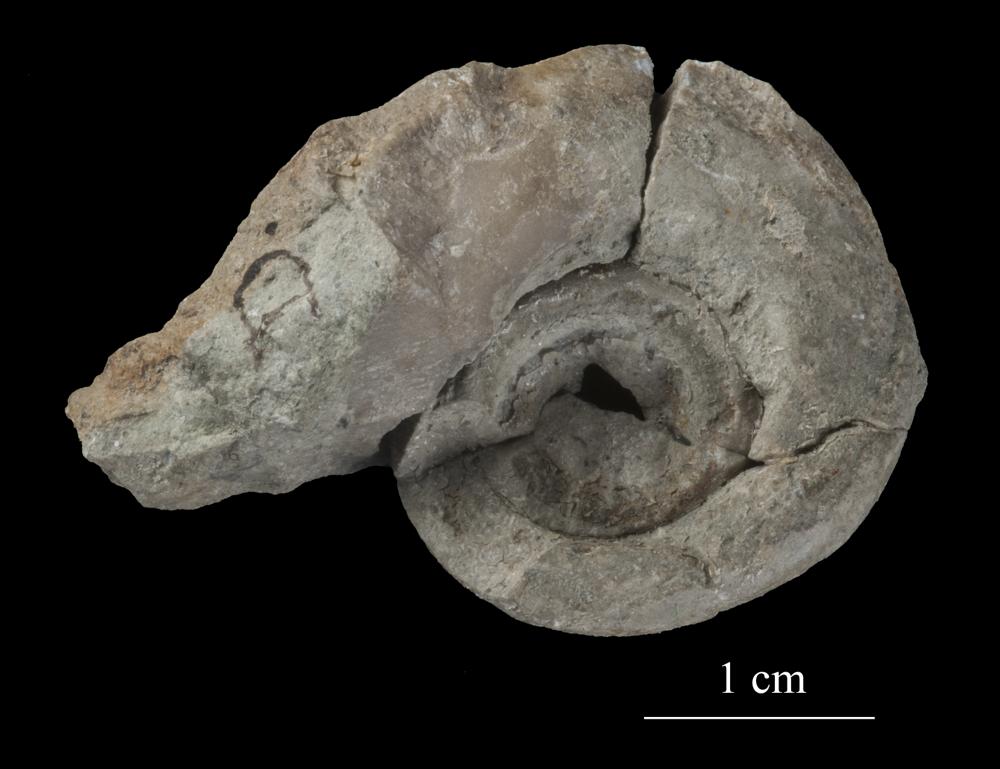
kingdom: Animalia
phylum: Mollusca
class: Gastropoda
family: Bucaniidae
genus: Megalomphala
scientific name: Megalomphala
